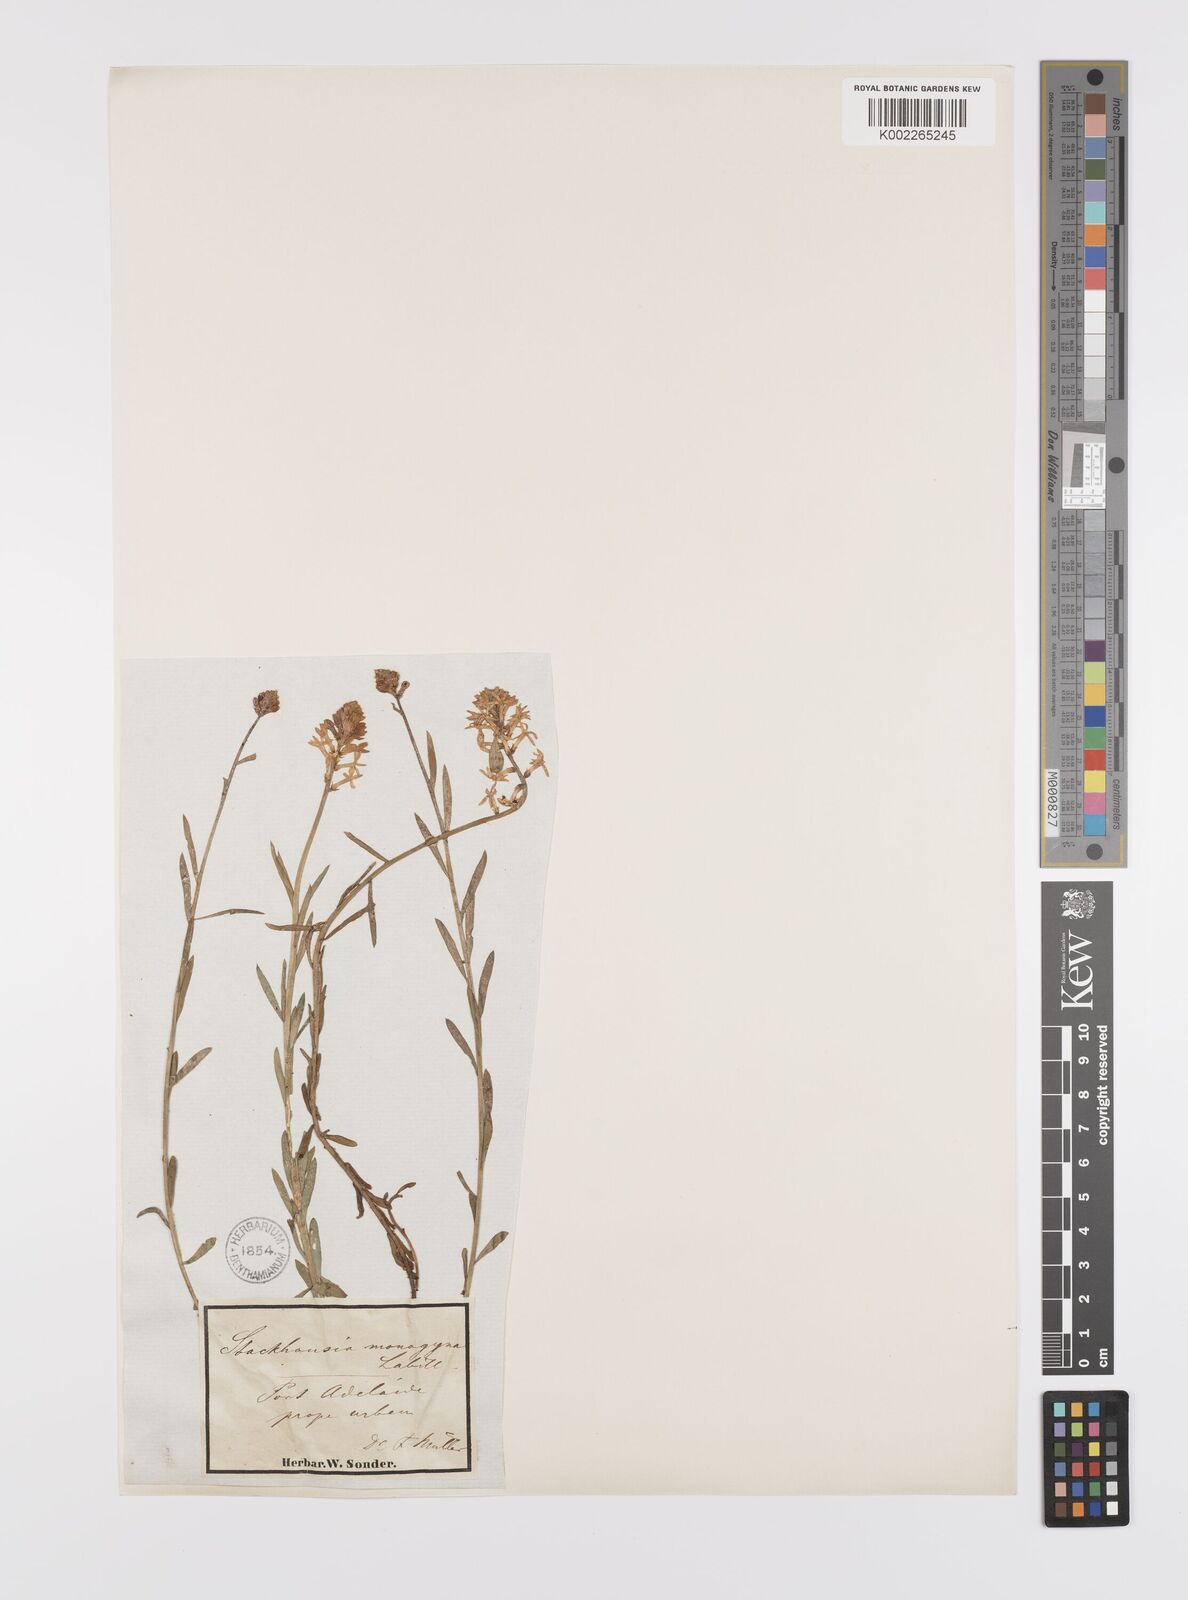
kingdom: Plantae
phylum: Tracheophyta
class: Magnoliopsida
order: Celastrales
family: Celastraceae
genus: Stackhousia
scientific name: Stackhousia monogyna
